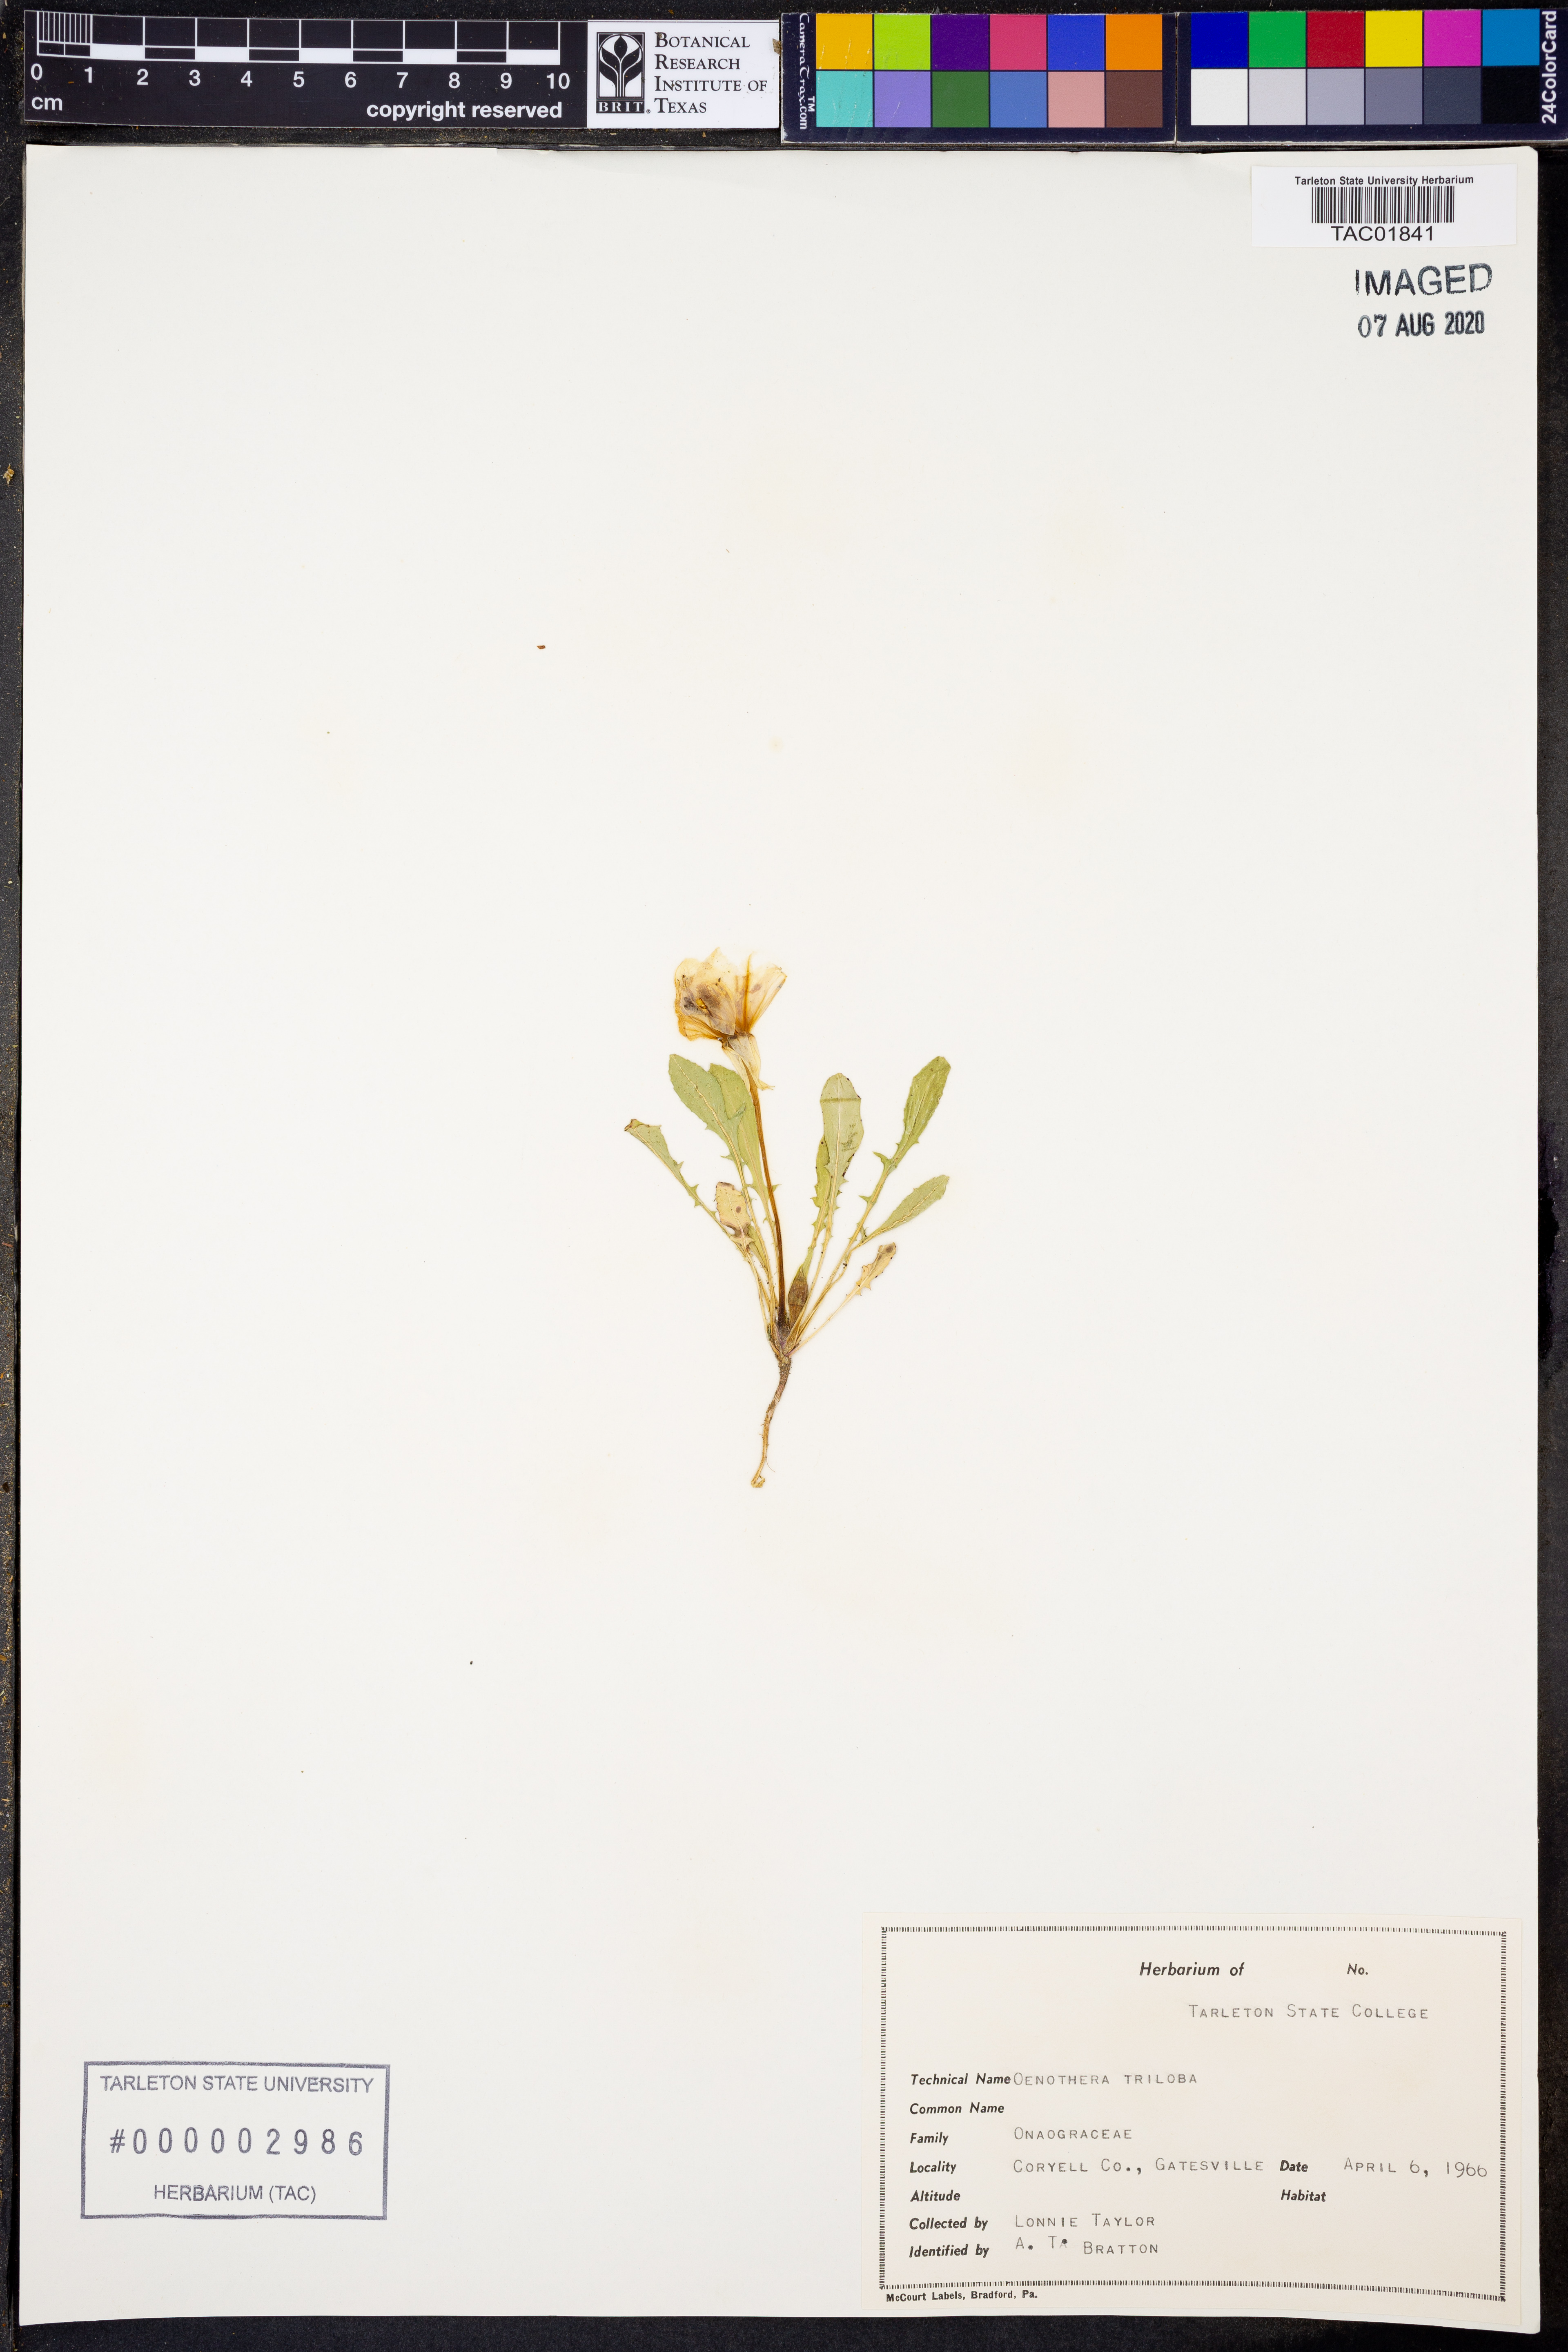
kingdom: Plantae
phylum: Tracheophyta
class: Magnoliopsida
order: Myrtales
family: Onagraceae
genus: Oenothera
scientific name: Oenothera triloba
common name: Sessile evening-primrose
